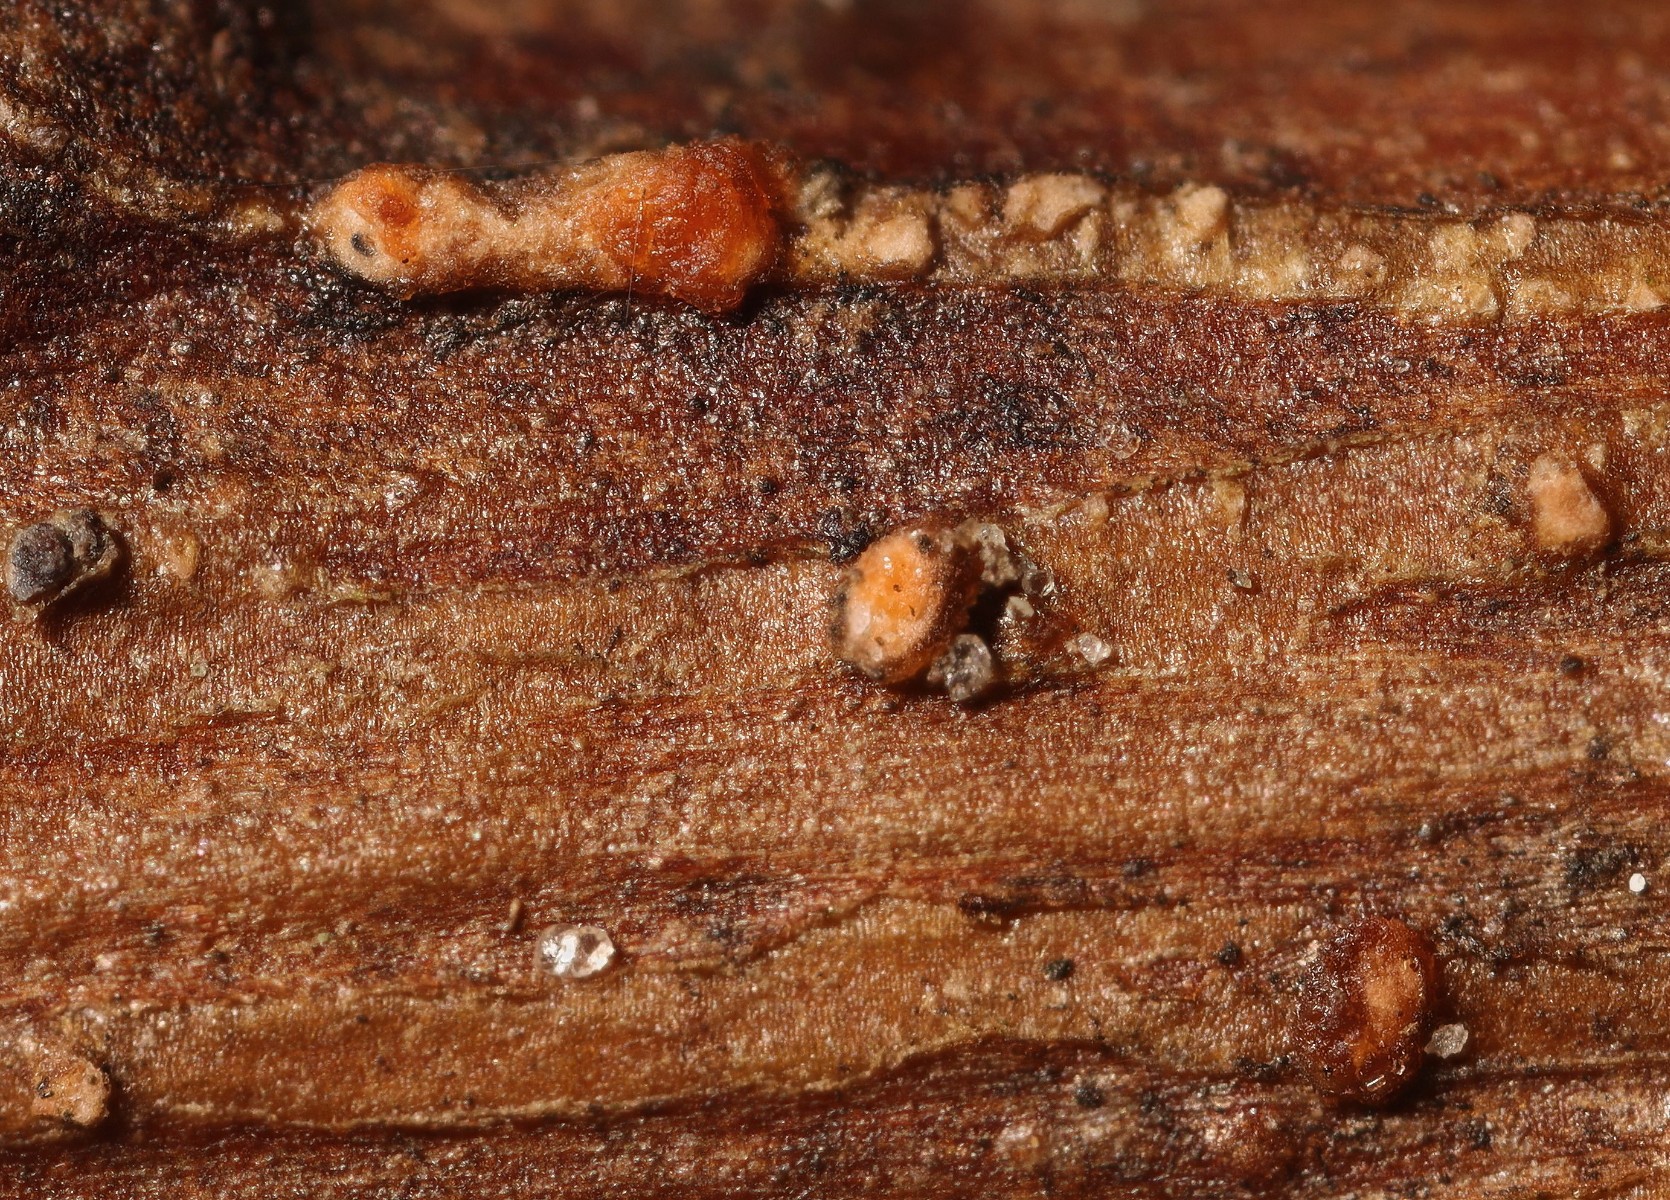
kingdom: Fungi
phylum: Ascomycota
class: Sordariomycetes
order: Hypocreales
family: Nectriaceae
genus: Fusarium
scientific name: Fusarium
